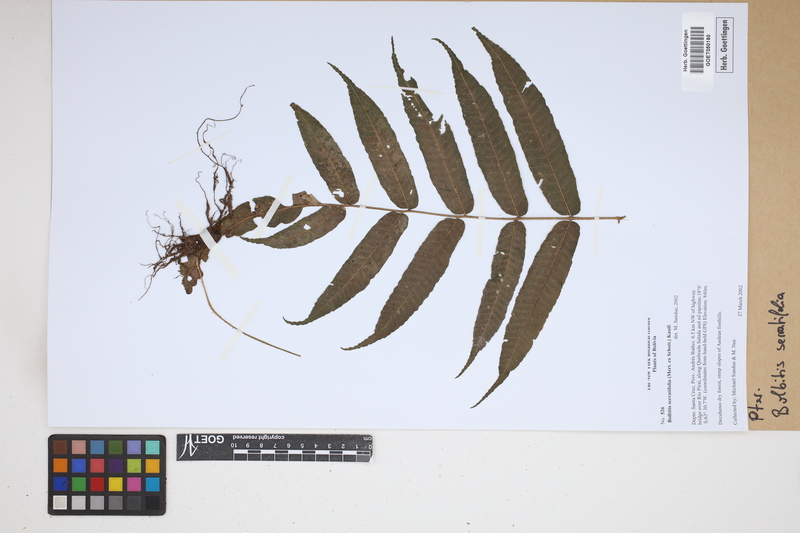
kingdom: Plantae
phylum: Tracheophyta
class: Polypodiopsida
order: Polypodiales
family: Dryopteridaceae
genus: Bolbitis
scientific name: Bolbitis serratifolia
